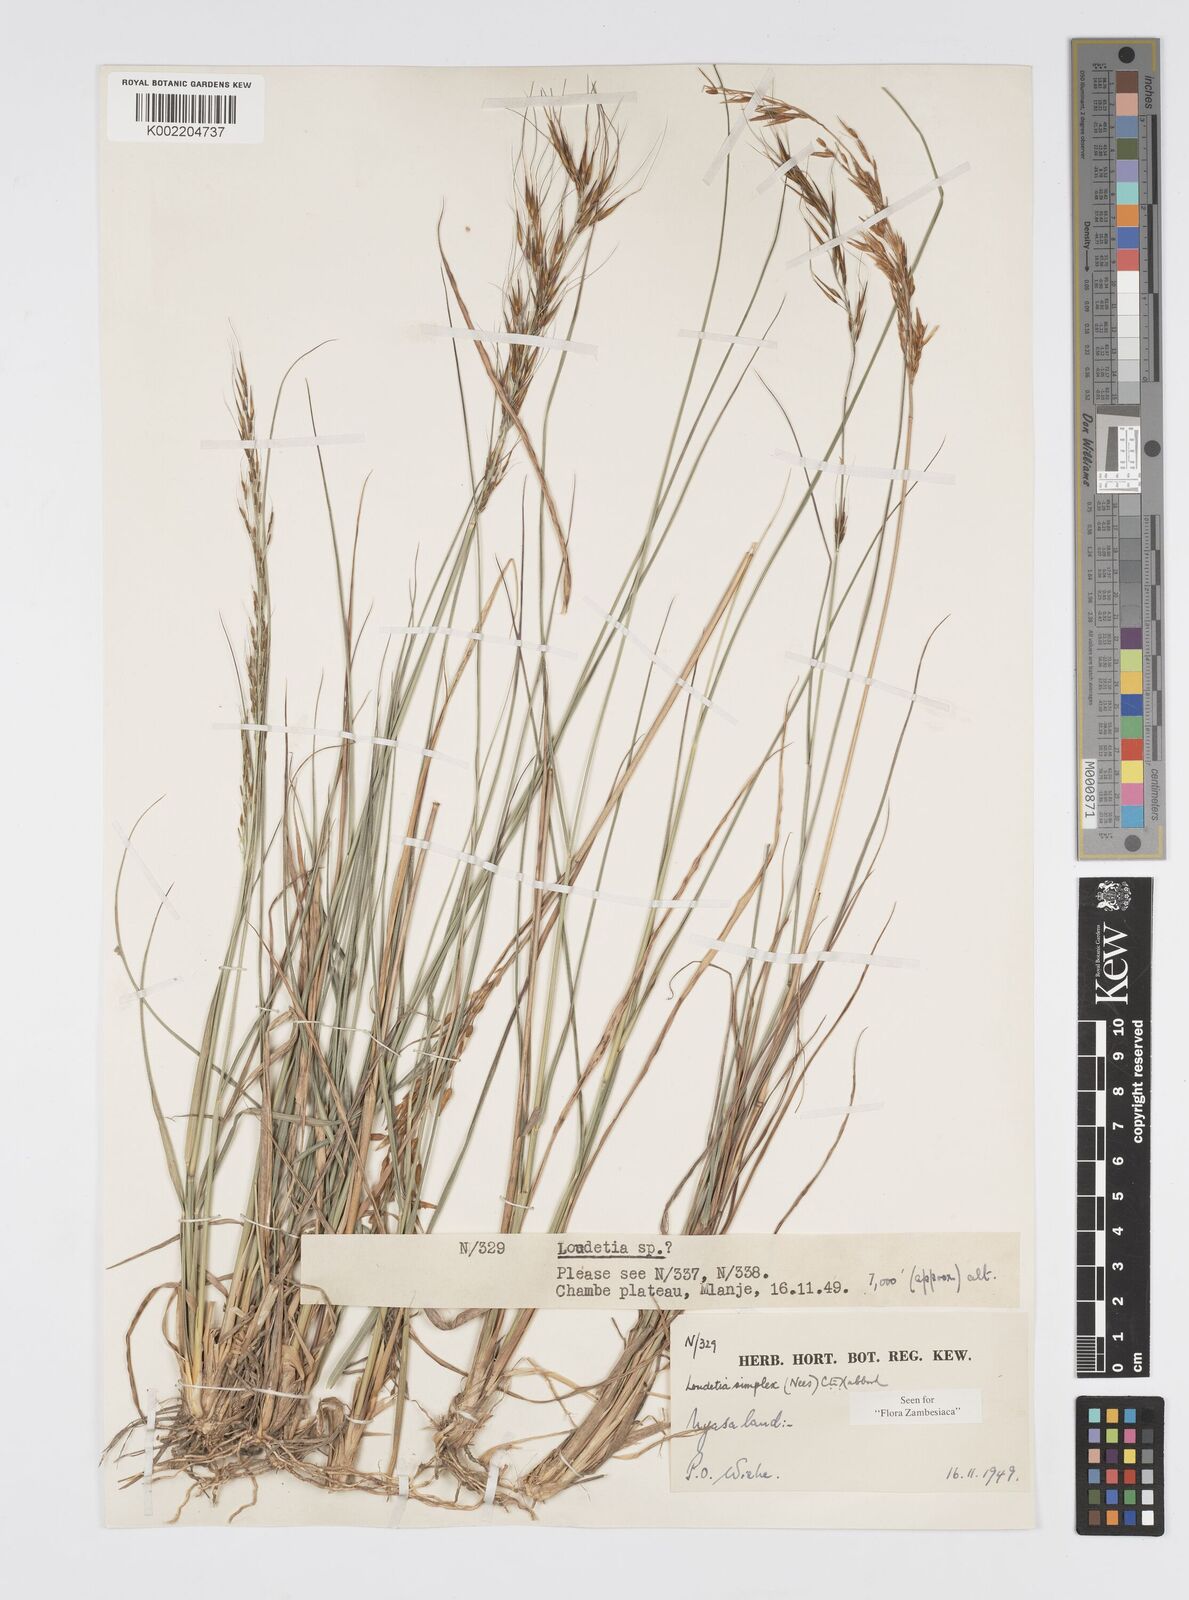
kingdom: Plantae
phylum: Tracheophyta
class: Liliopsida
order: Poales
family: Poaceae
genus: Loudetia
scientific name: Loudetia simplex
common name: Common russet grass
